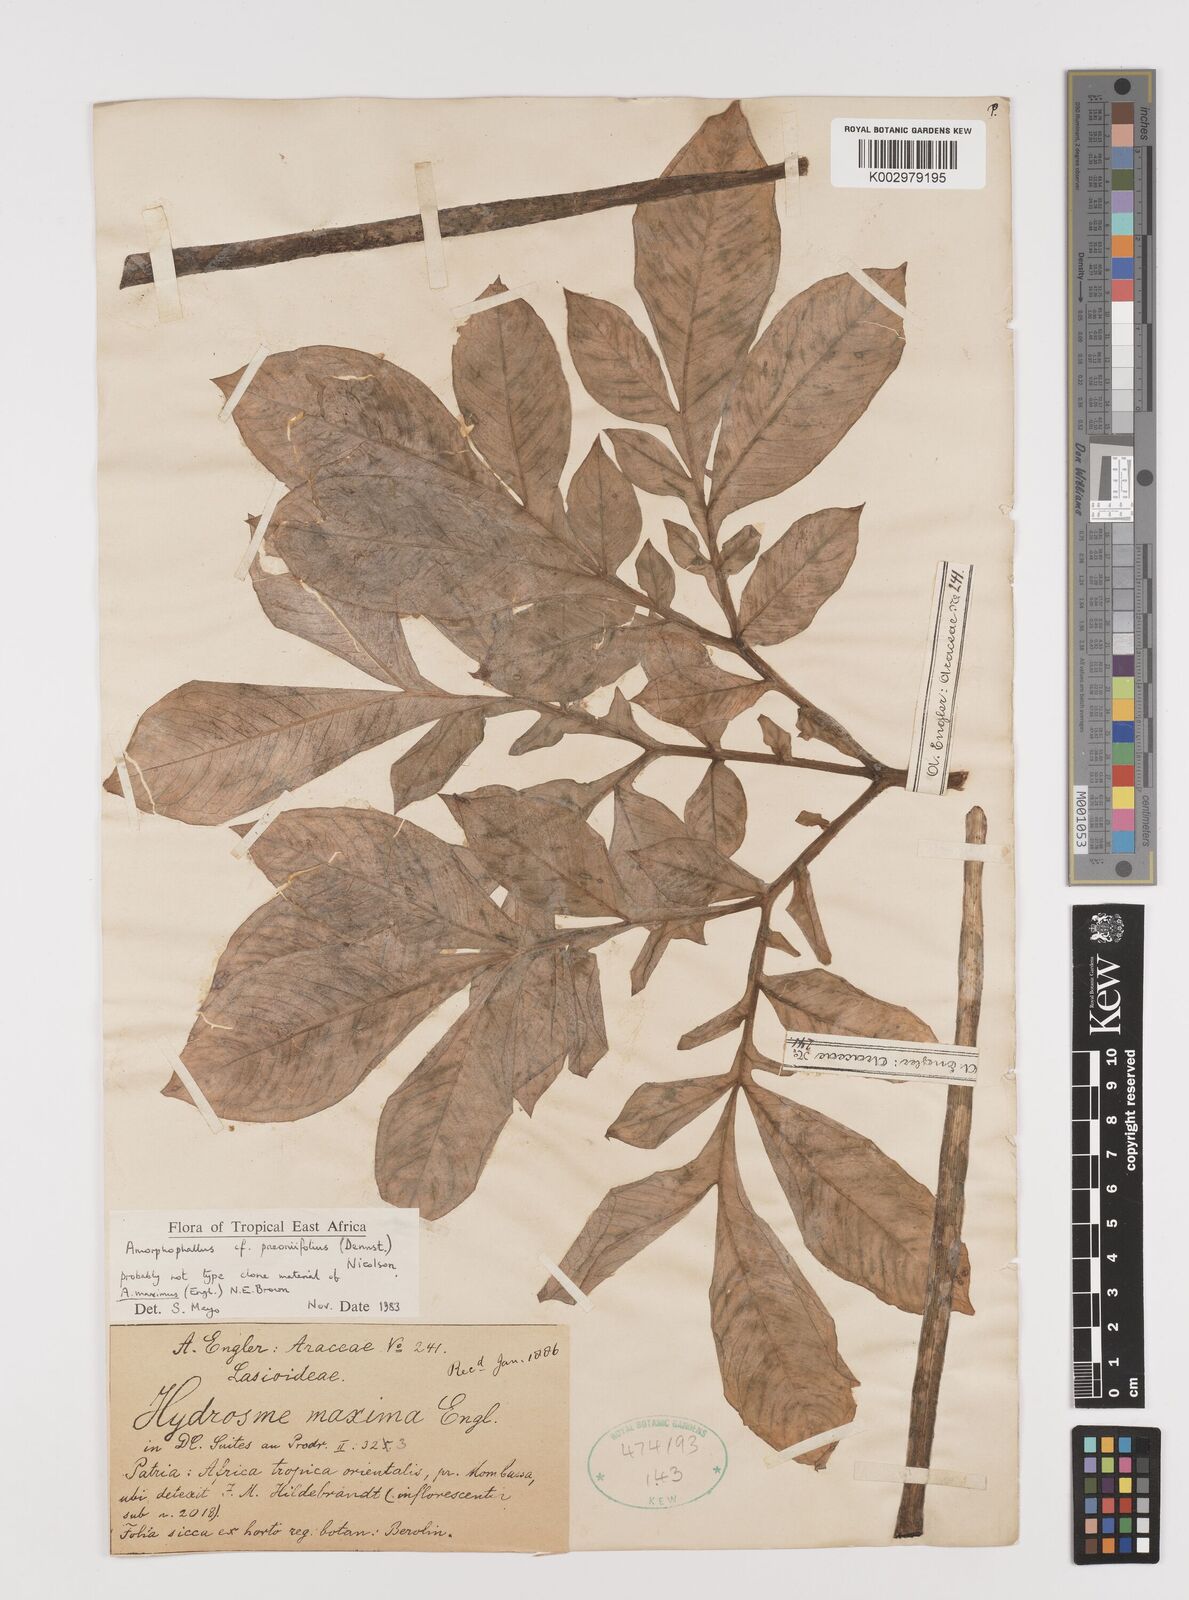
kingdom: Plantae
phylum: Tracheophyta
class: Liliopsida
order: Alismatales
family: Araceae
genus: Amorphophallus
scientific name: Amorphophallus maximus
